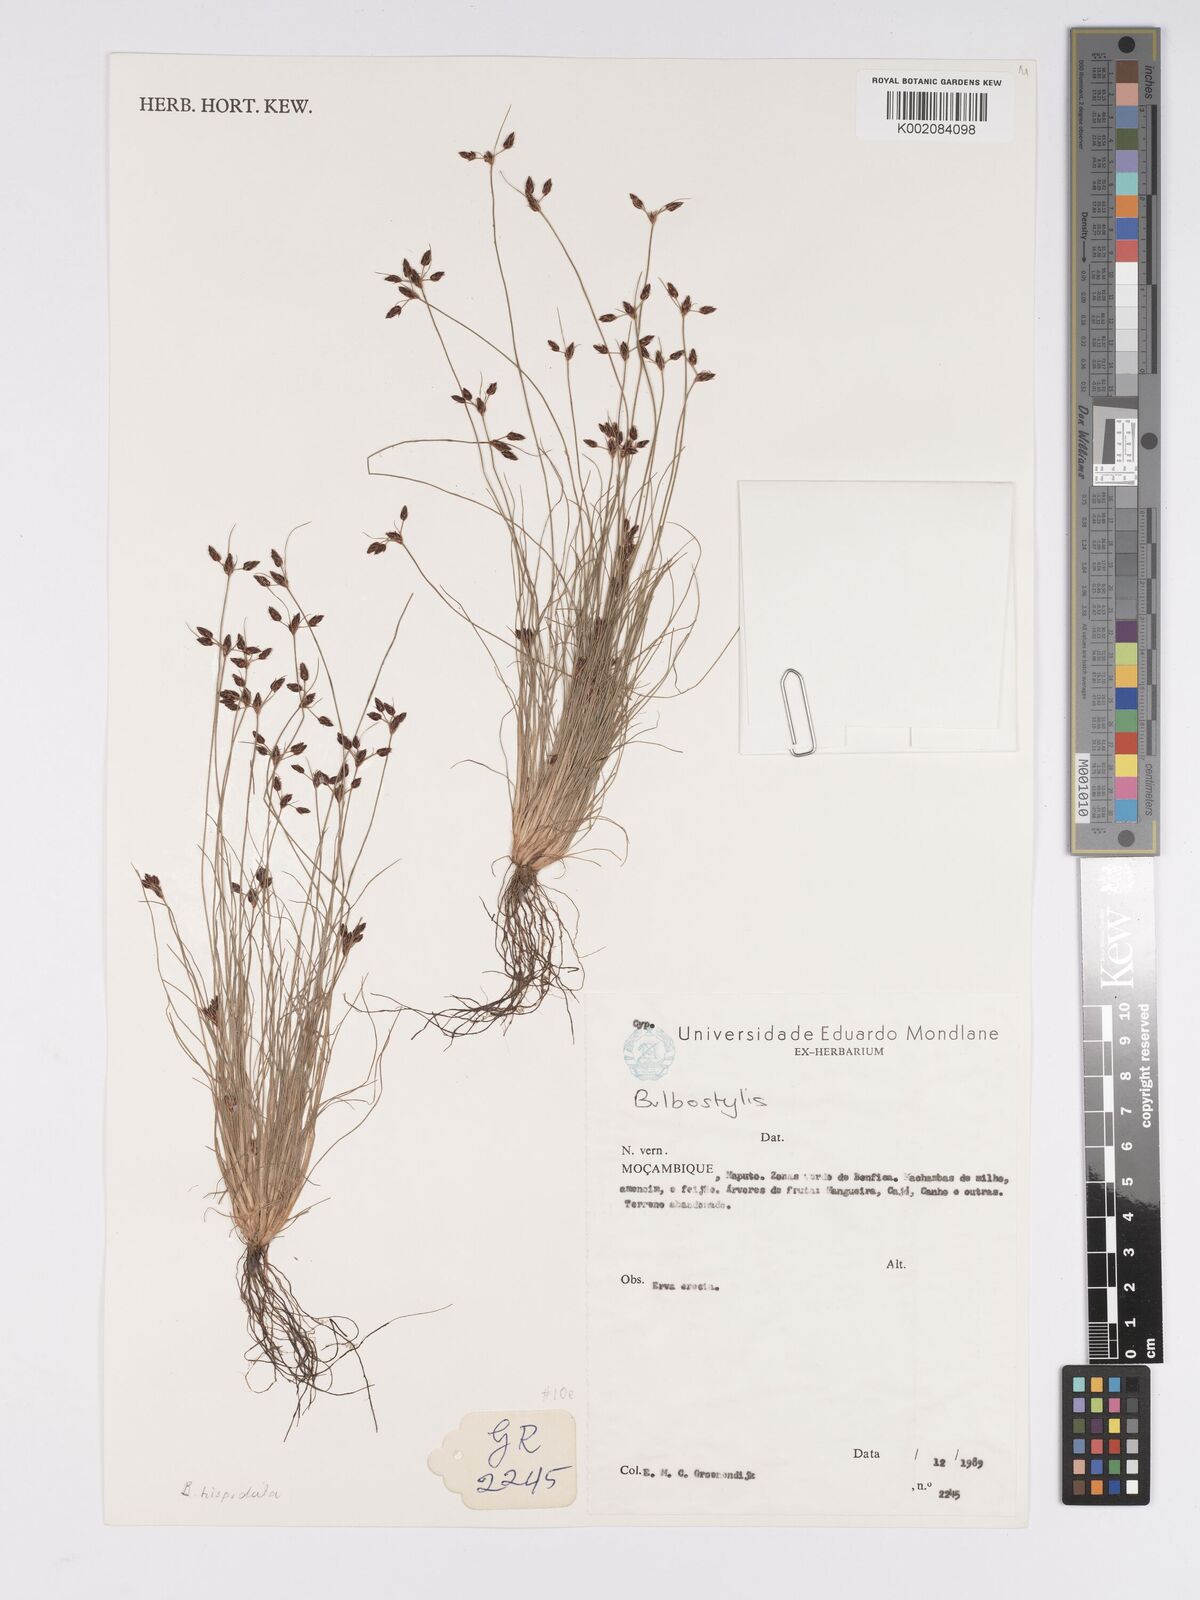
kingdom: Plantae
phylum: Tracheophyta
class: Liliopsida
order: Poales
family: Cyperaceae
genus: Bulbostylis
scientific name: Bulbostylis
